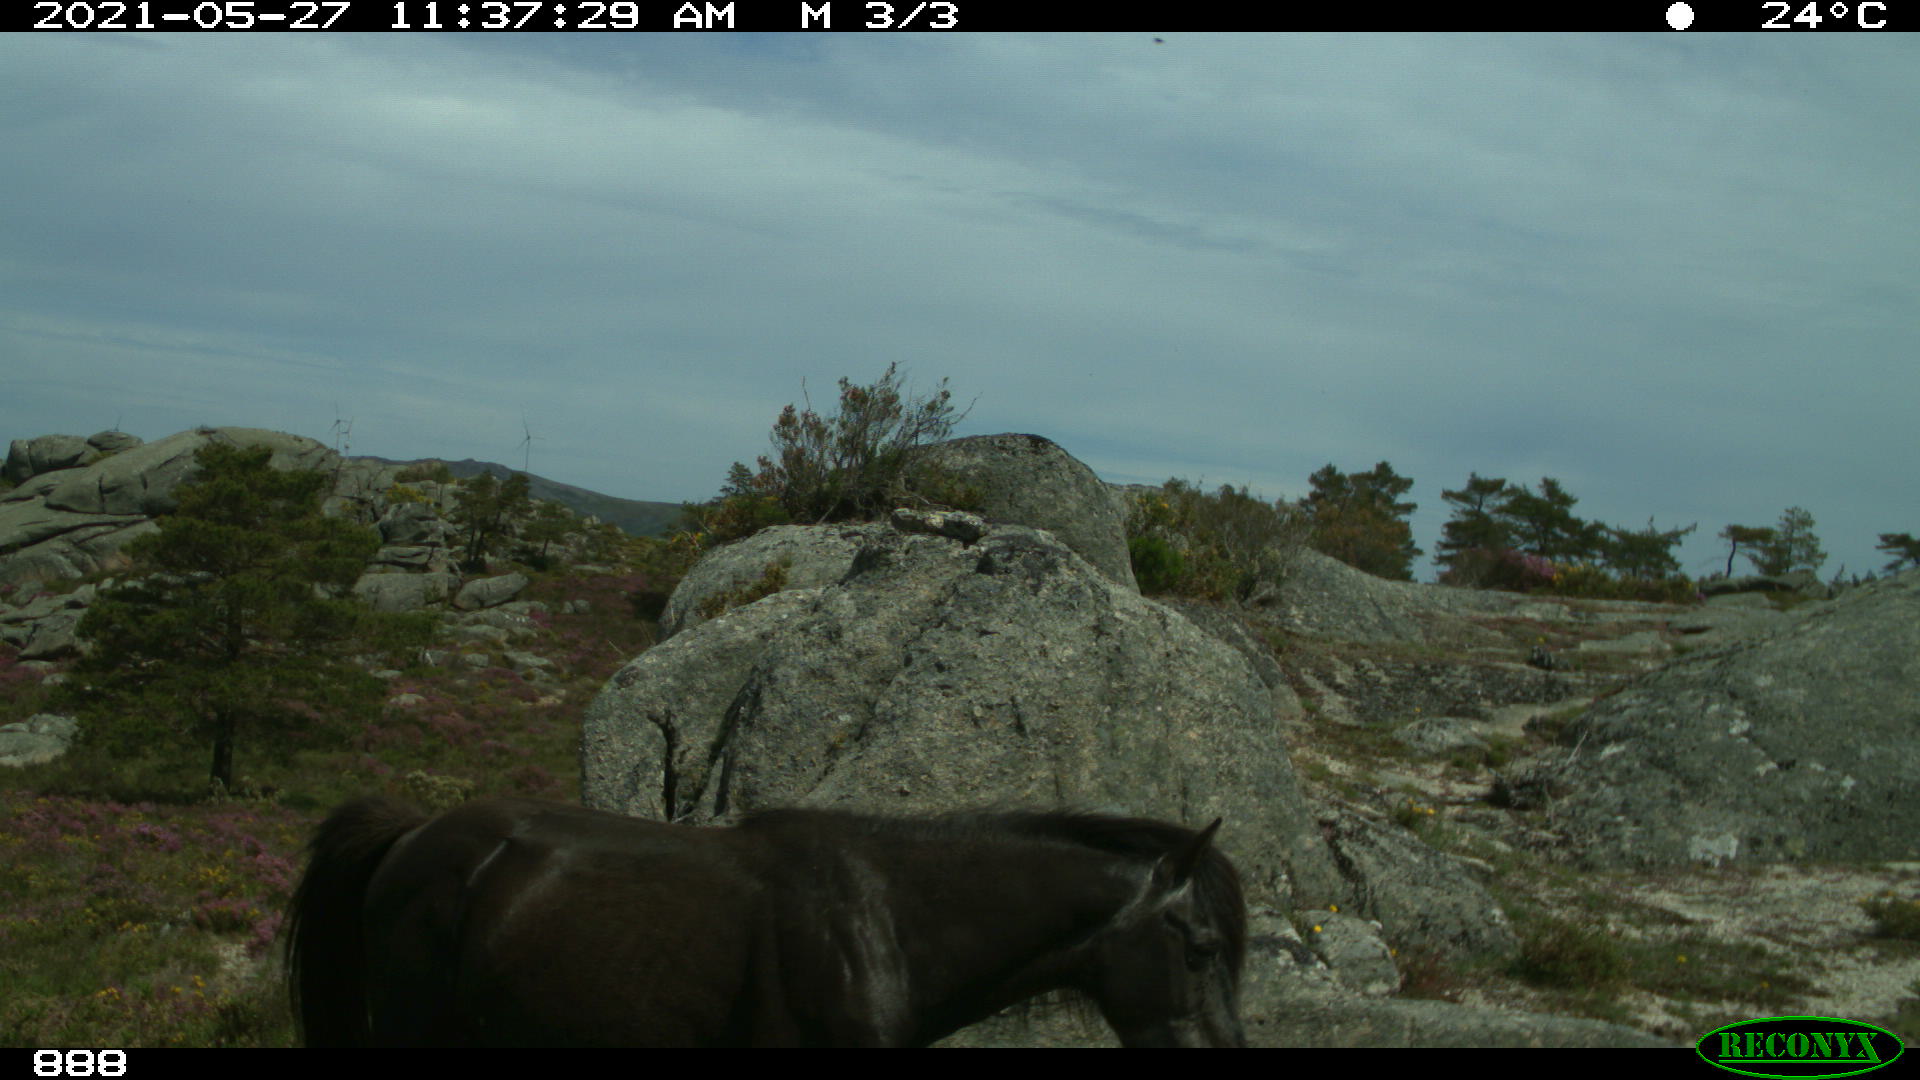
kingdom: Animalia
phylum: Chordata
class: Mammalia
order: Perissodactyla
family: Equidae
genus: Equus
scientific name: Equus caballus
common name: Horse
